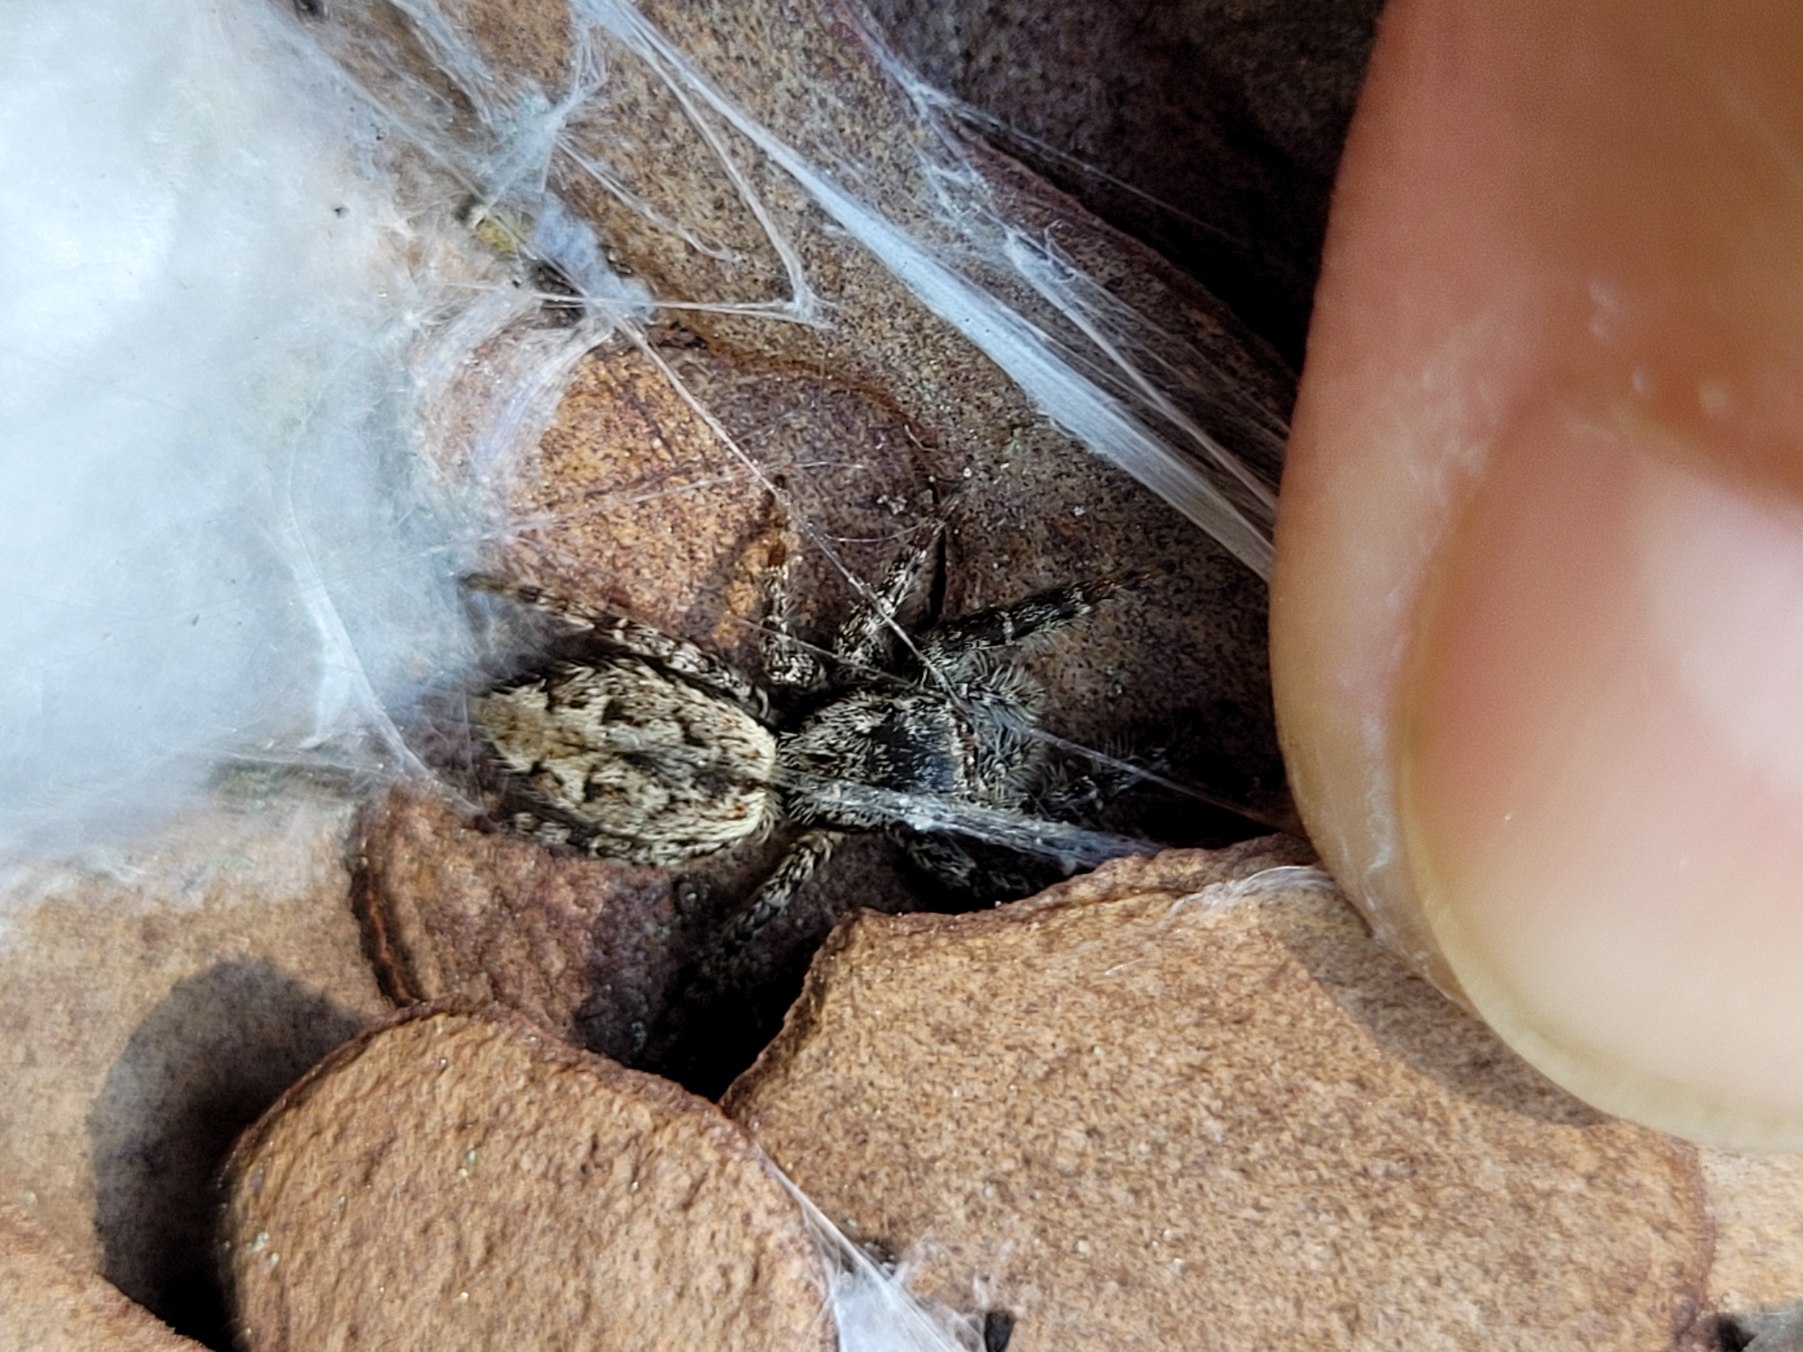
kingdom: Animalia
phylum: Arthropoda
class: Arachnida
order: Araneae
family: Salticidae
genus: Marpissa
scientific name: Marpissa muscosa
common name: Stor springedderkop
